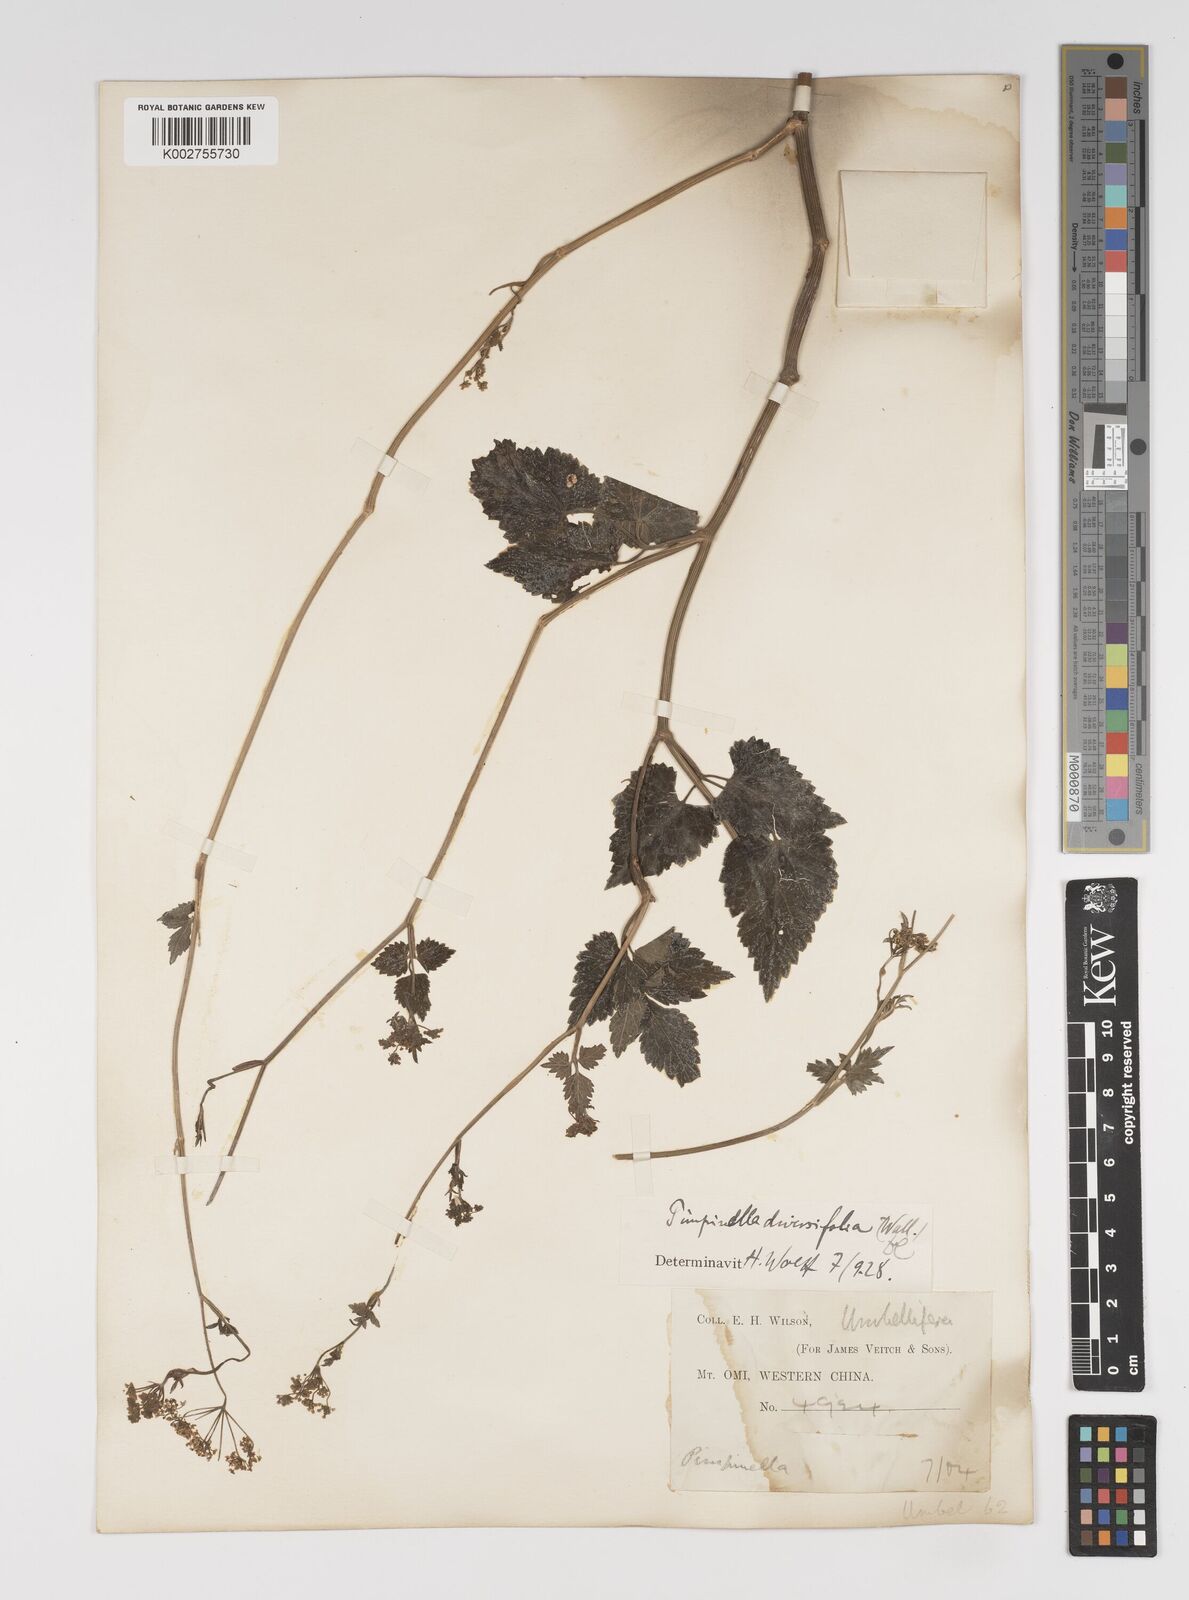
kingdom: Plantae
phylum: Tracheophyta
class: Magnoliopsida
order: Apiales
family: Apiaceae
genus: Pimpinella
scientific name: Pimpinella diversifolia
